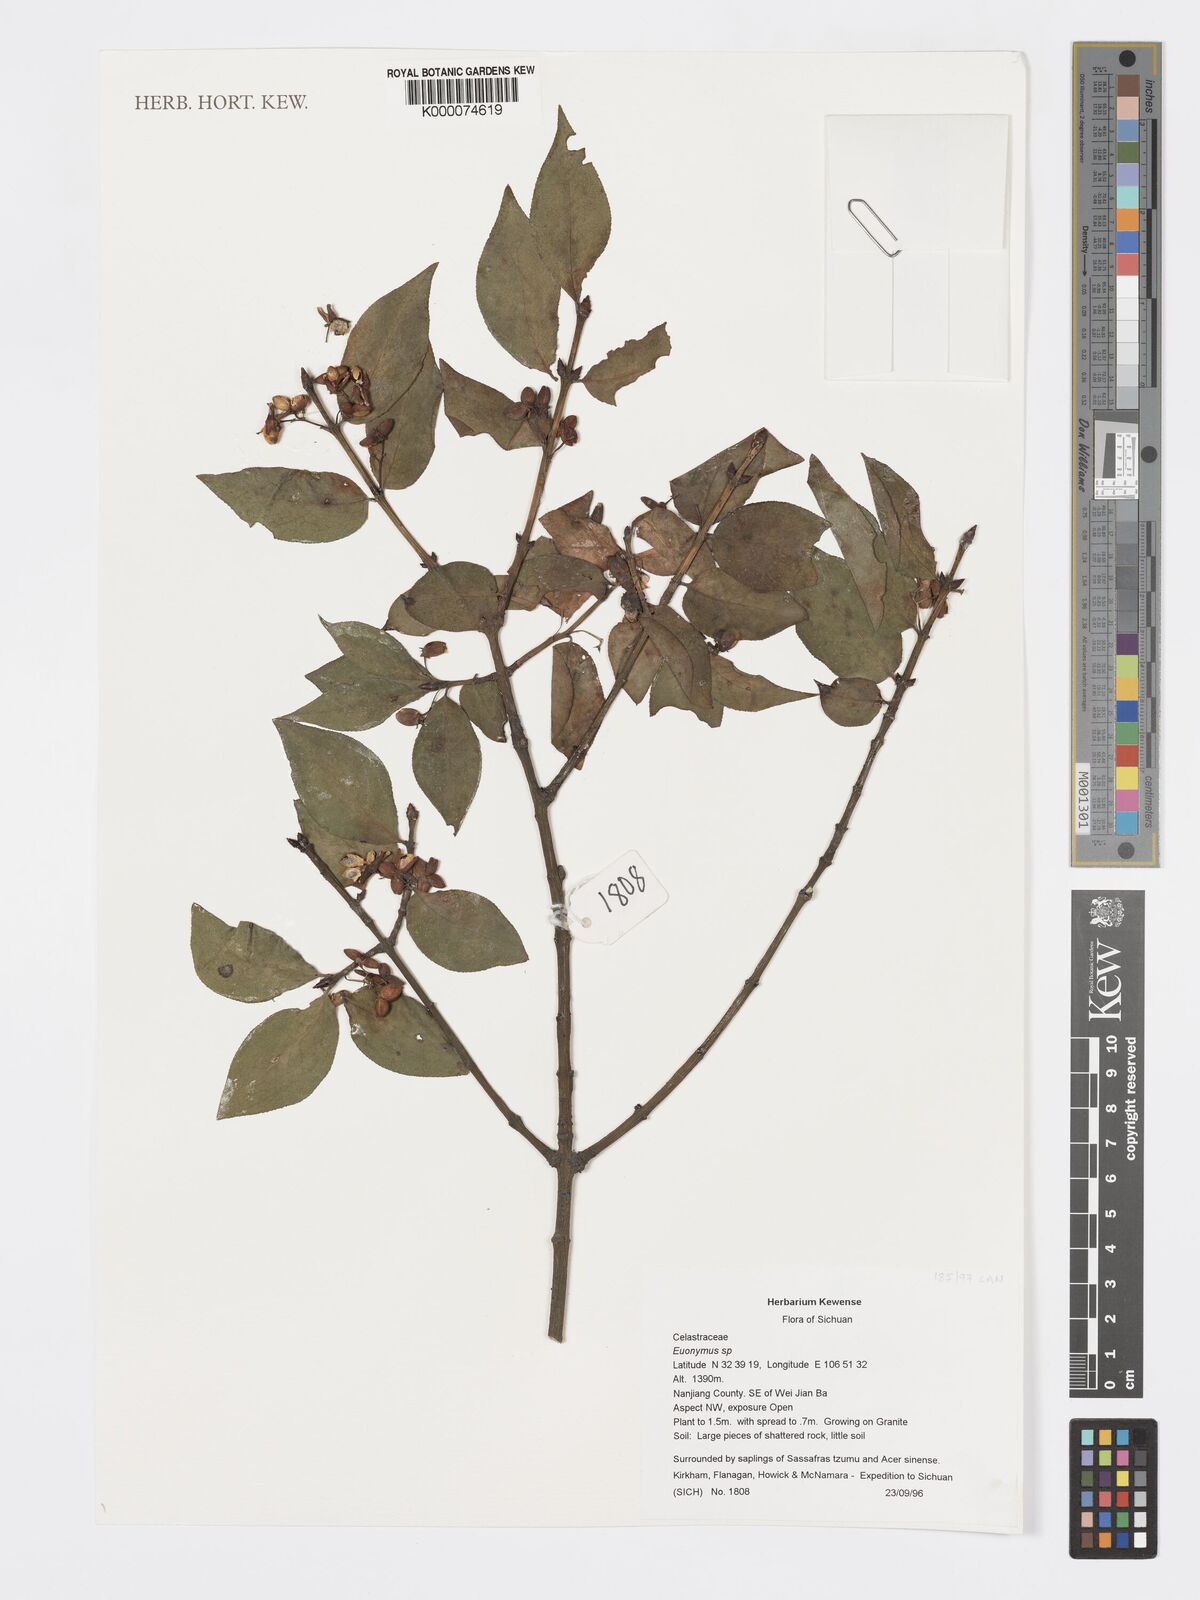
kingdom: Plantae
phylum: Tracheophyta
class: Magnoliopsida
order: Celastrales
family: Celastraceae
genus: Euonymus
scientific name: Euonymus
